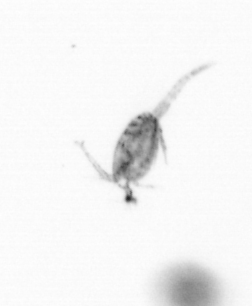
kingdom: Animalia
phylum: Arthropoda
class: Copepoda
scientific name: Copepoda
